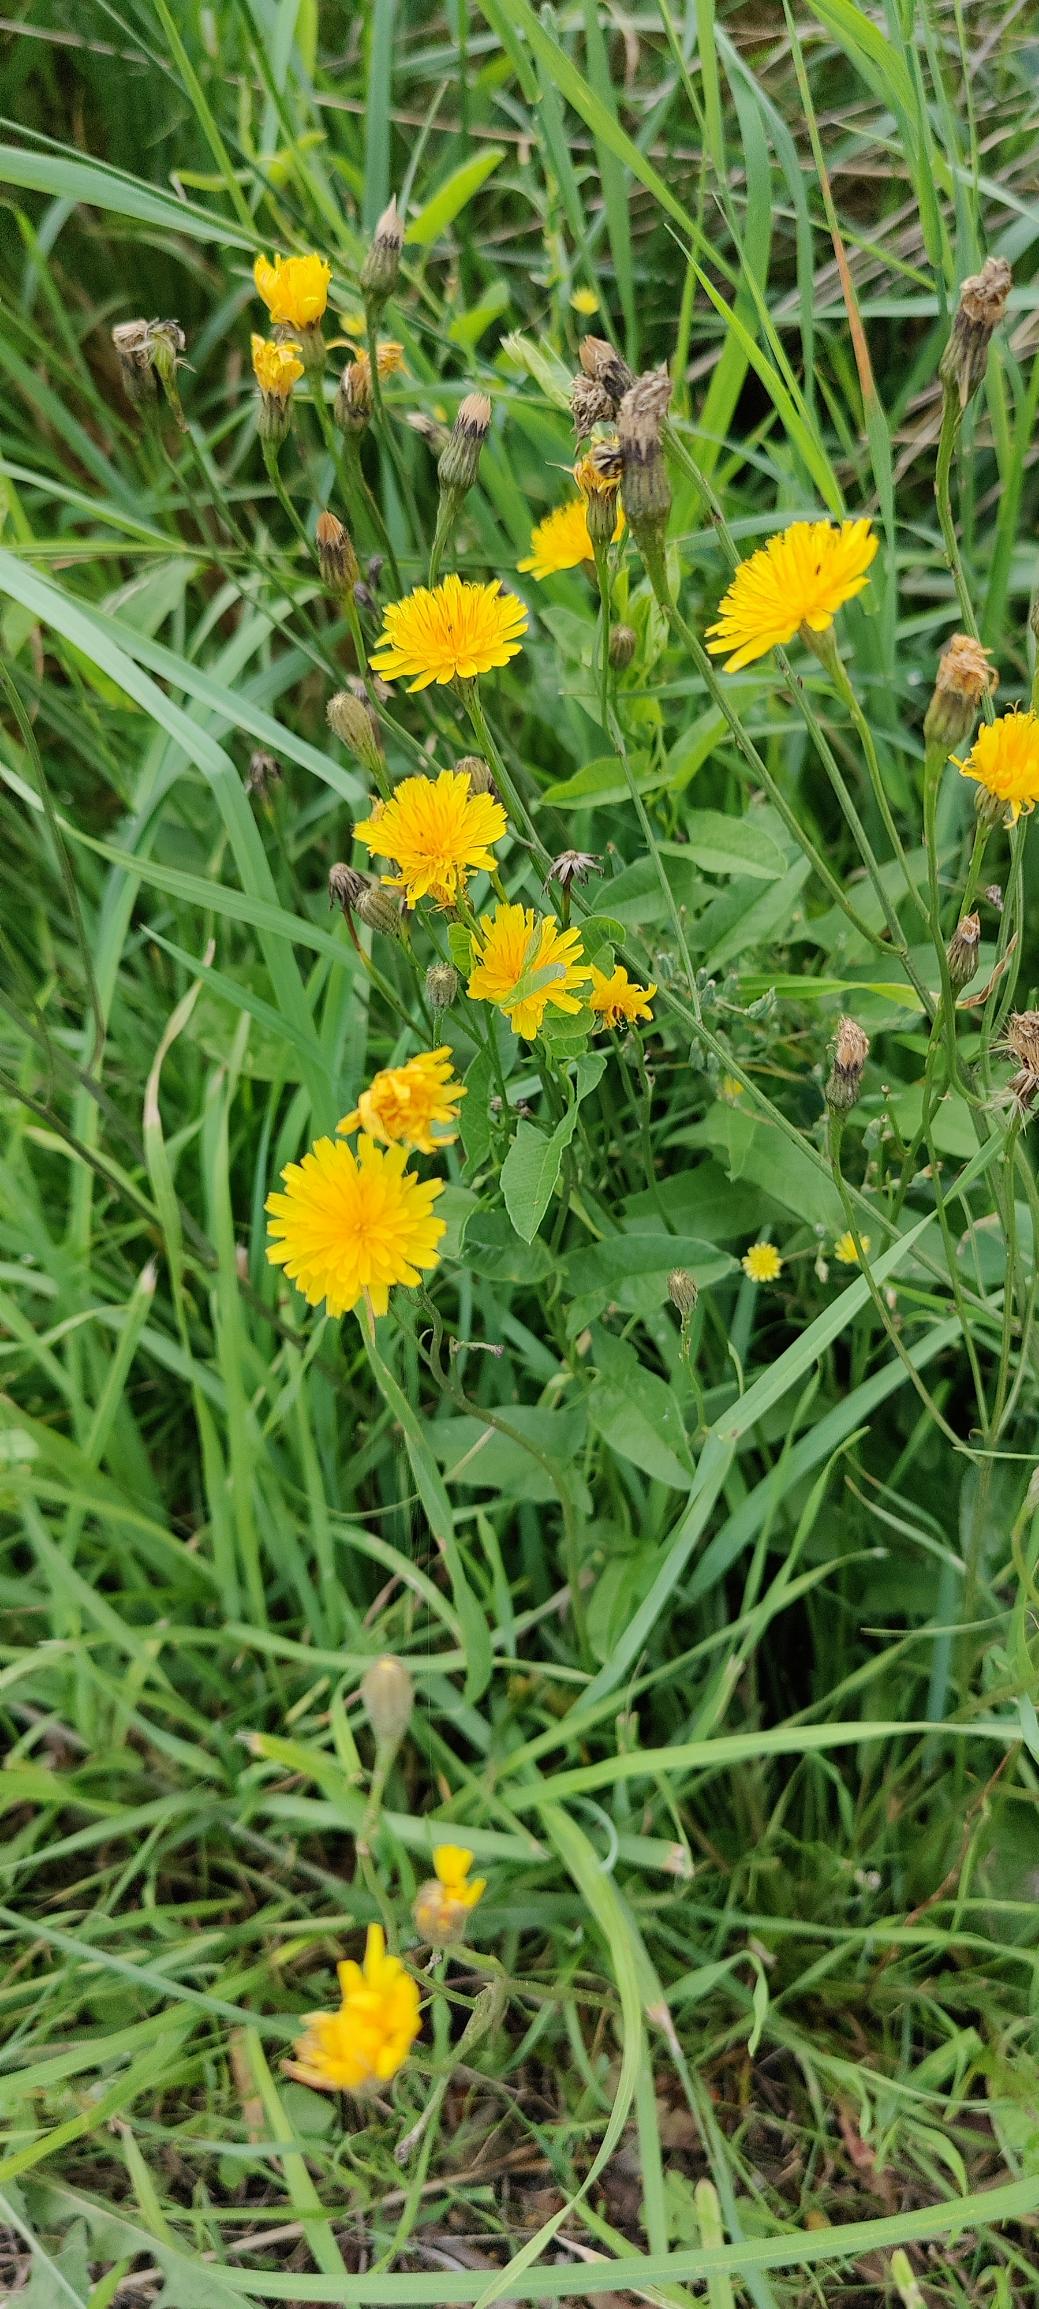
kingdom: Plantae
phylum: Tracheophyta
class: Magnoliopsida
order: Asterales
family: Asteraceae
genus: Scorzoneroides
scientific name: Scorzoneroides autumnalis
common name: Høst-borst
